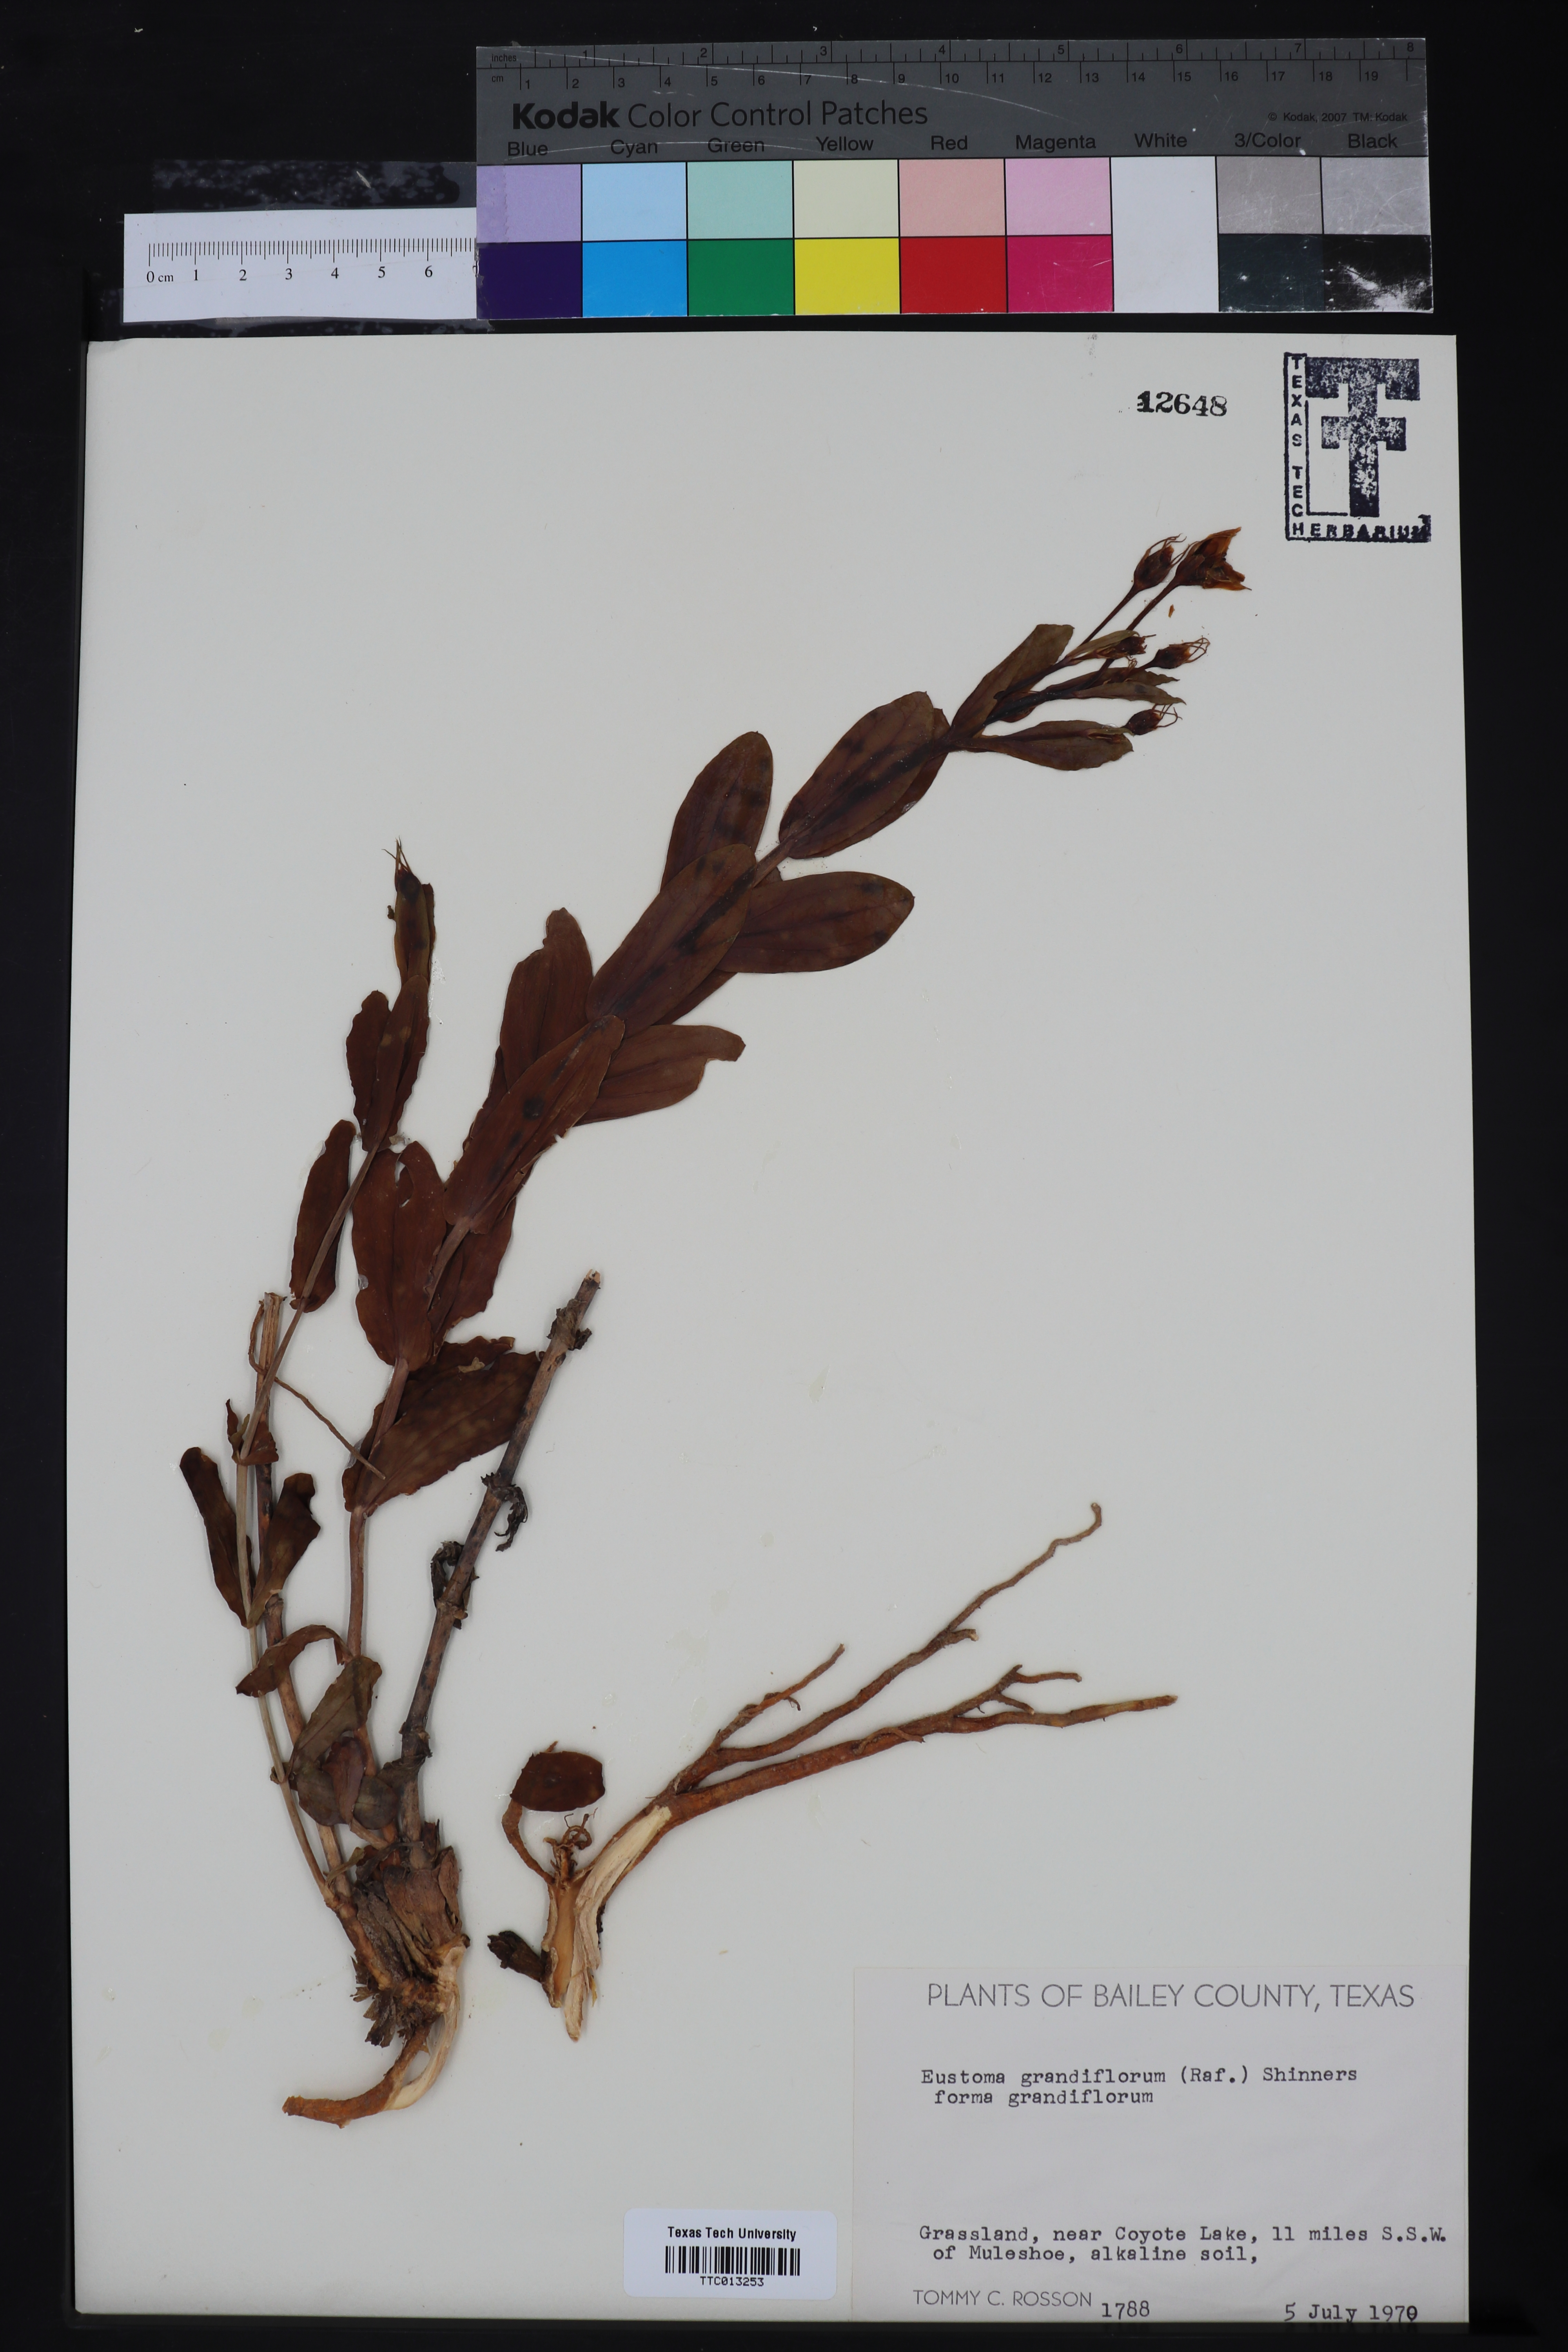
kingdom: Plantae
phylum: Tracheophyta
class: Magnoliopsida
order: Gentianales
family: Gentianaceae
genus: Eustoma
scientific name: Eustoma russellianum
